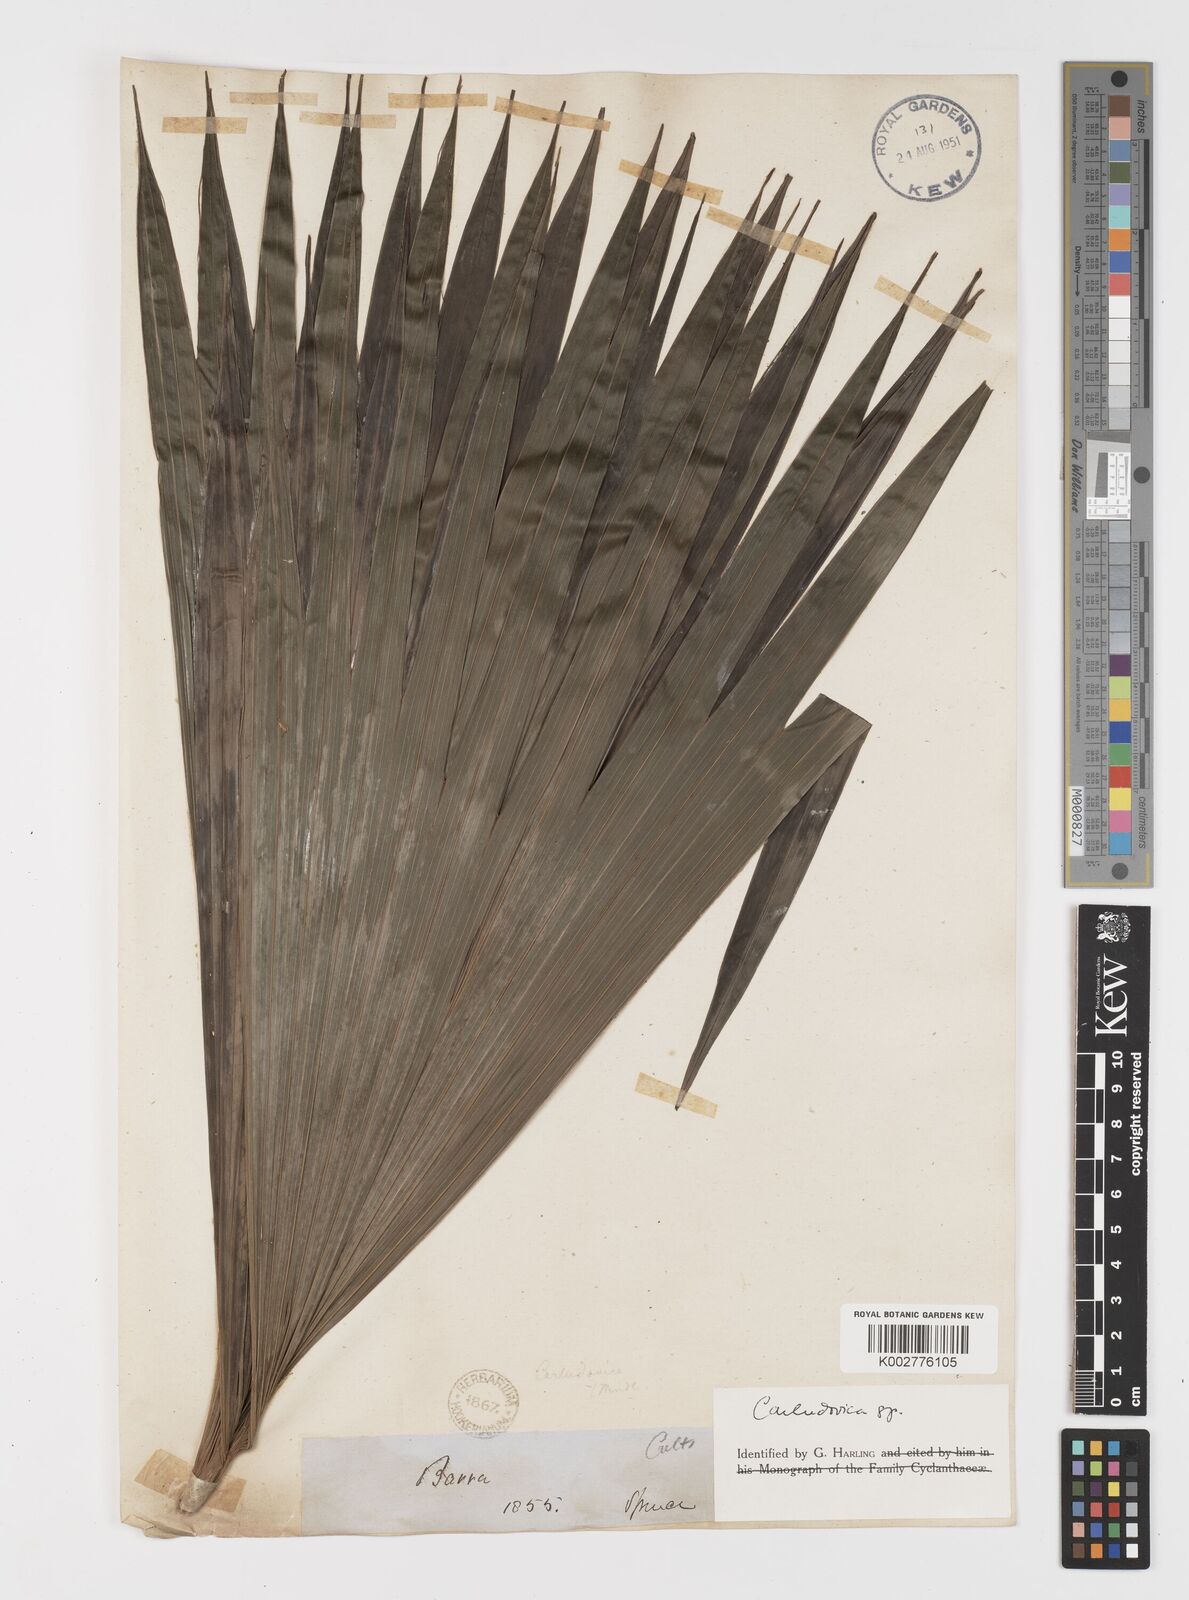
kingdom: Plantae
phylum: Tracheophyta
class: Liliopsida
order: Pandanales
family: Cyclanthaceae
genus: Carludovica
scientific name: Carludovica
